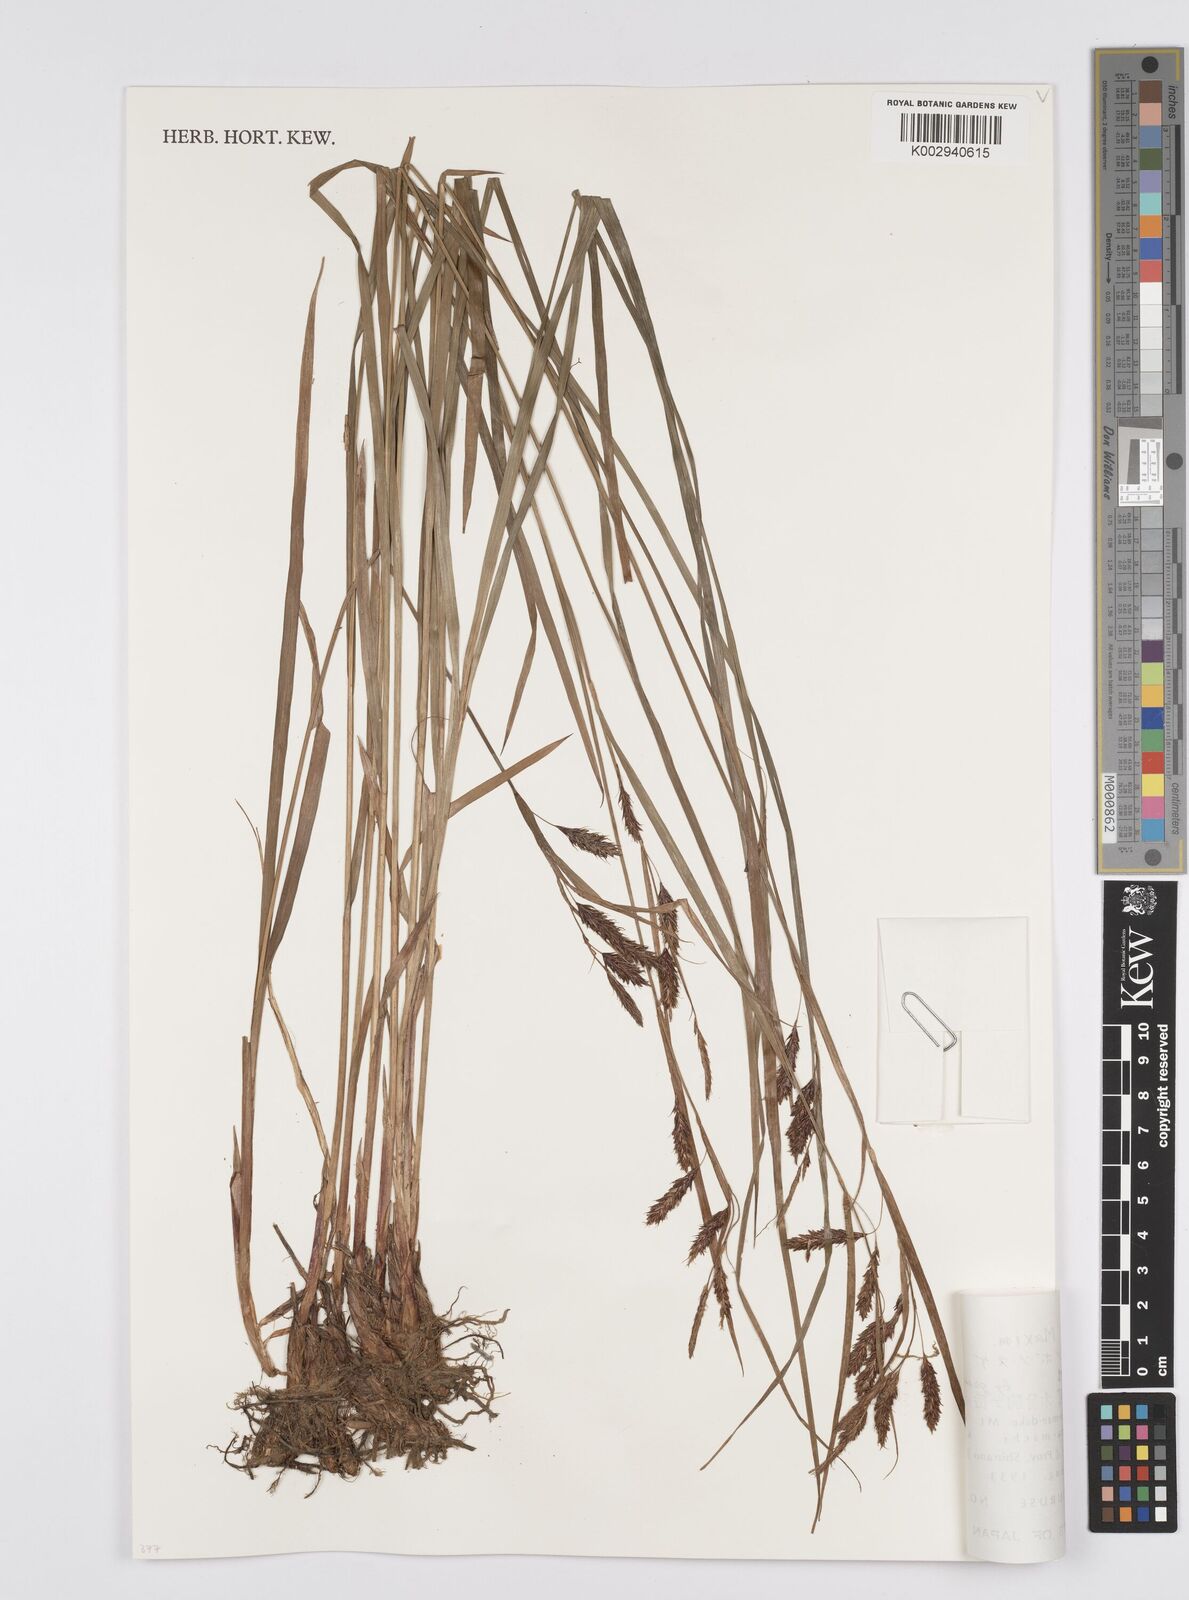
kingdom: Plantae
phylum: Tracheophyta
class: Liliopsida
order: Poales
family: Cyperaceae
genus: Carex
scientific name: Carex scita
